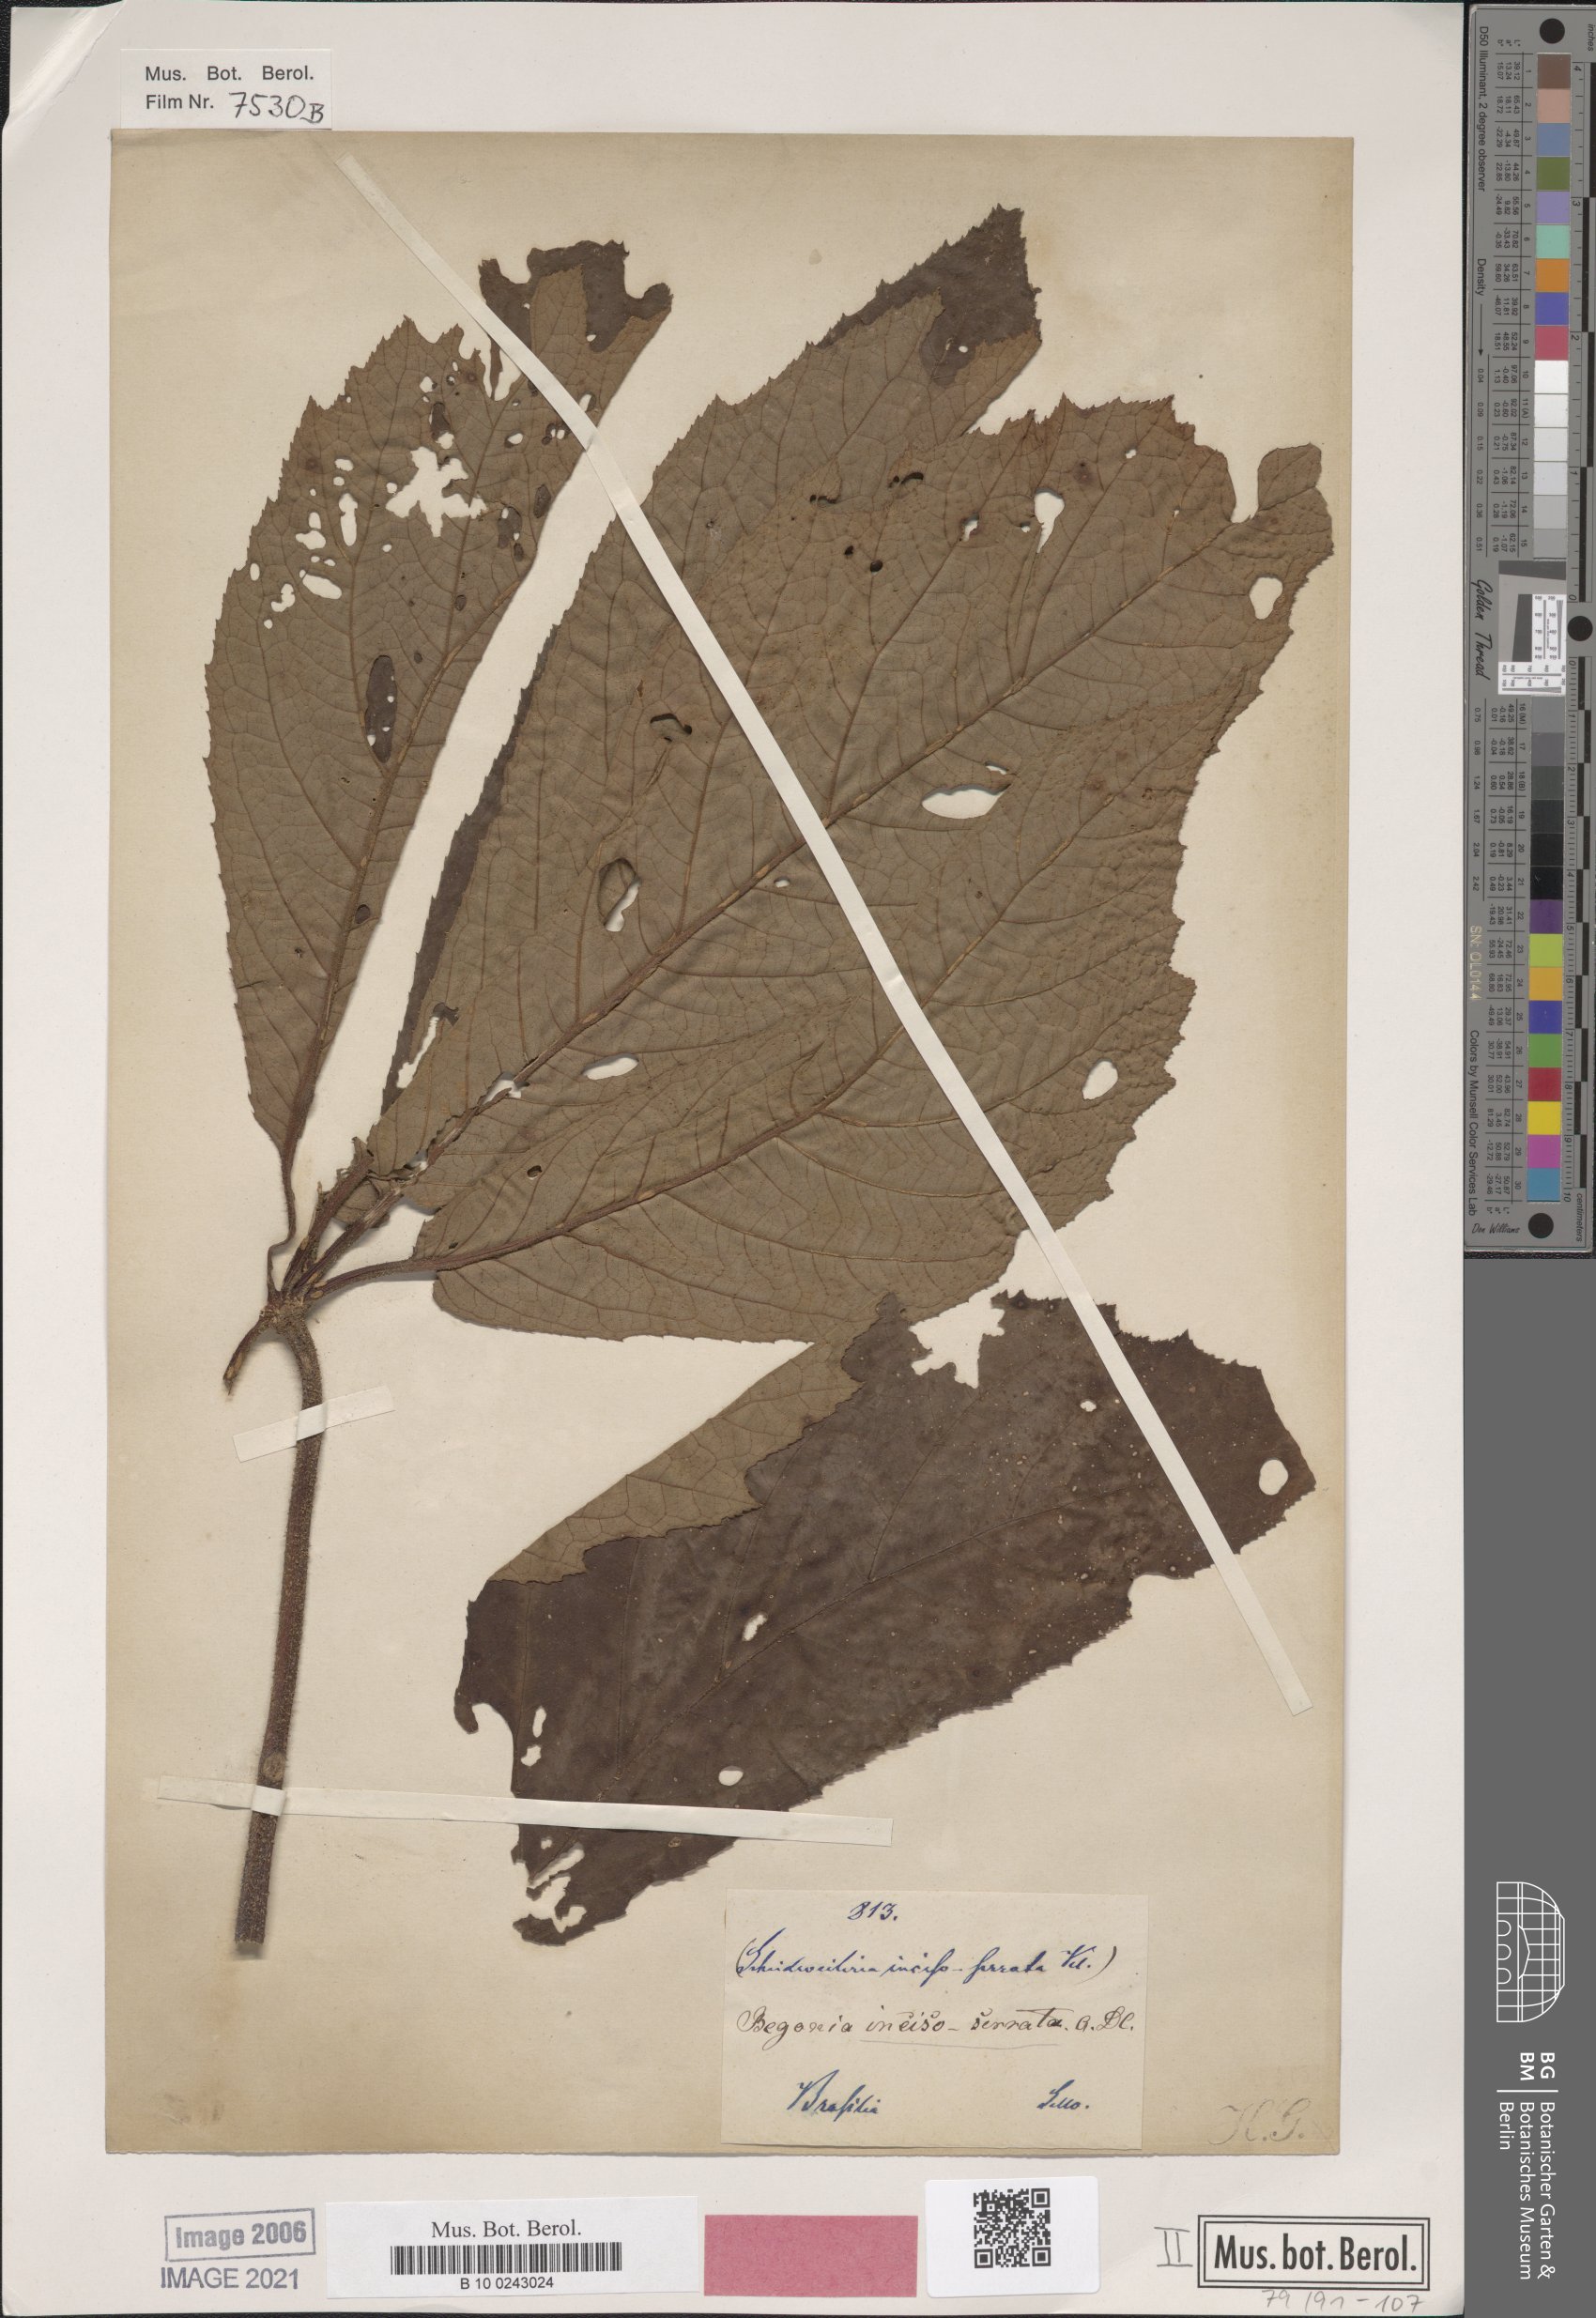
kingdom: Plantae
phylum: Tracheophyta
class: Magnoliopsida
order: Cucurbitales
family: Begoniaceae
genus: Begonia
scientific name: Begonia incisoserrata
